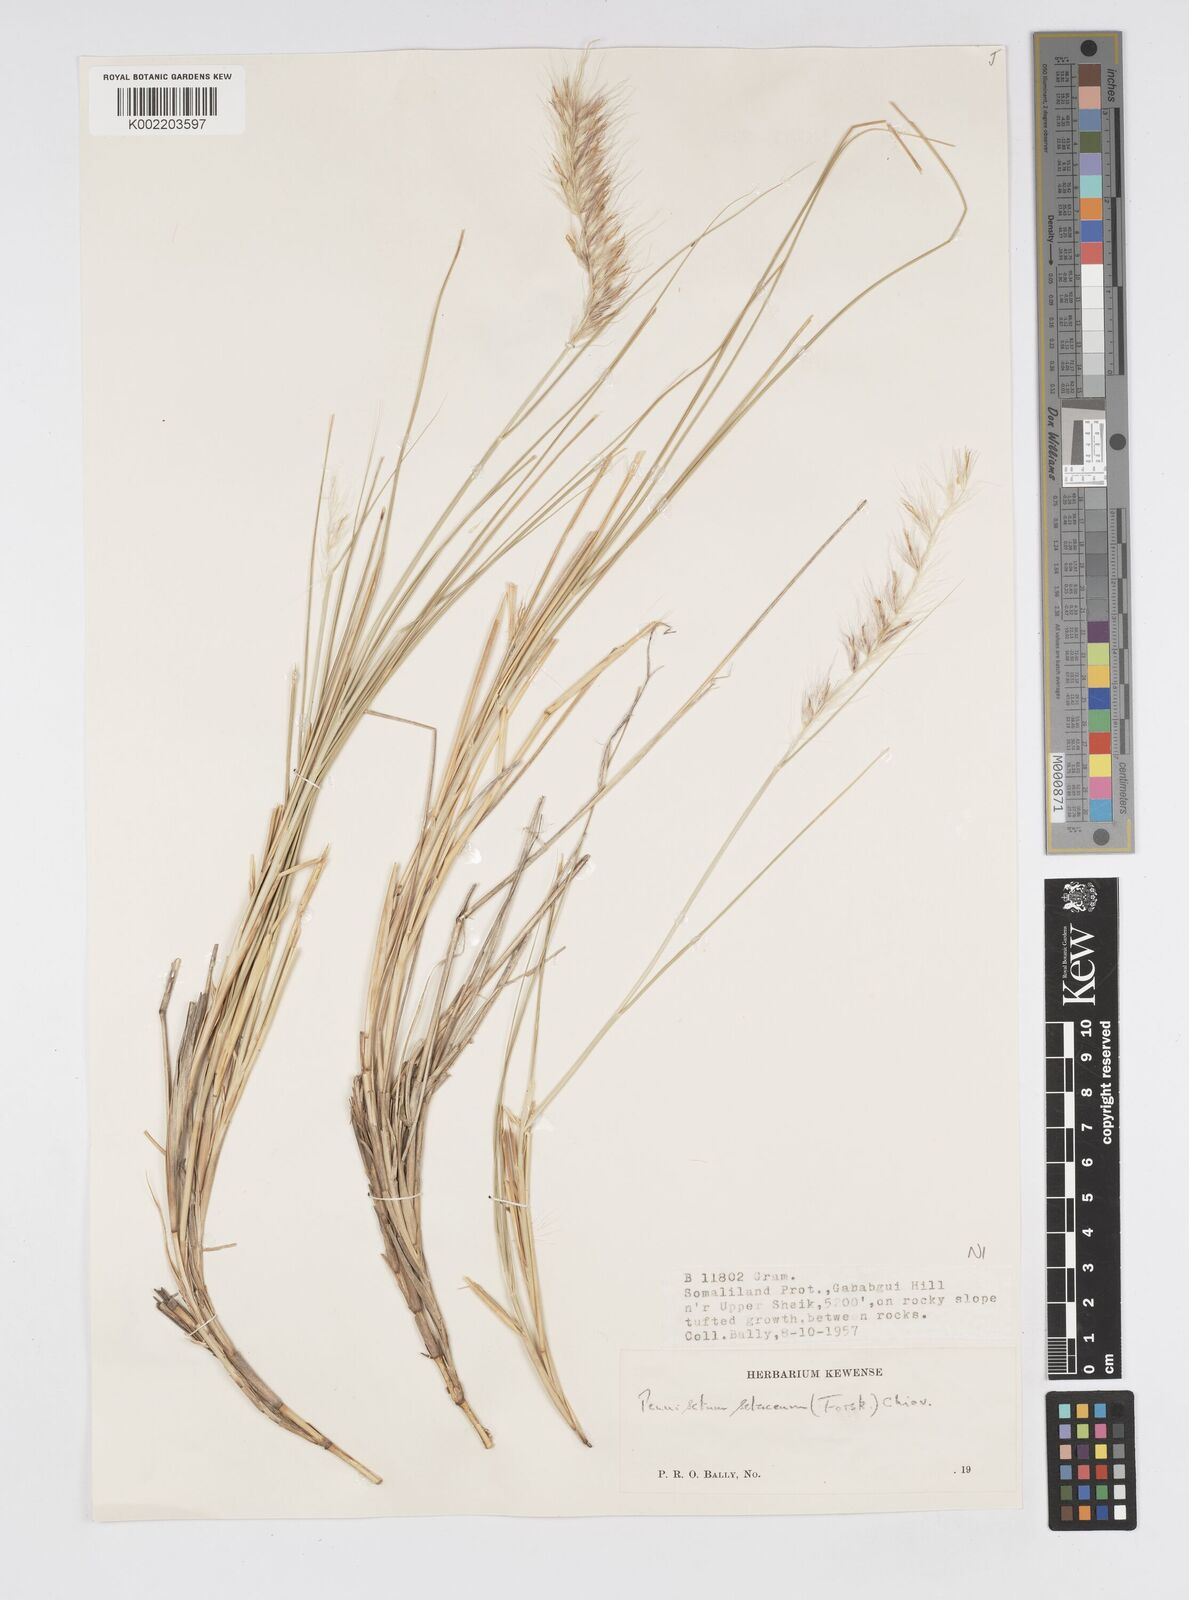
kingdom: Plantae
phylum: Tracheophyta
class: Liliopsida
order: Poales
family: Poaceae
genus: Cenchrus
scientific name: Cenchrus setaceus
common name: Crimson fountaingrass
